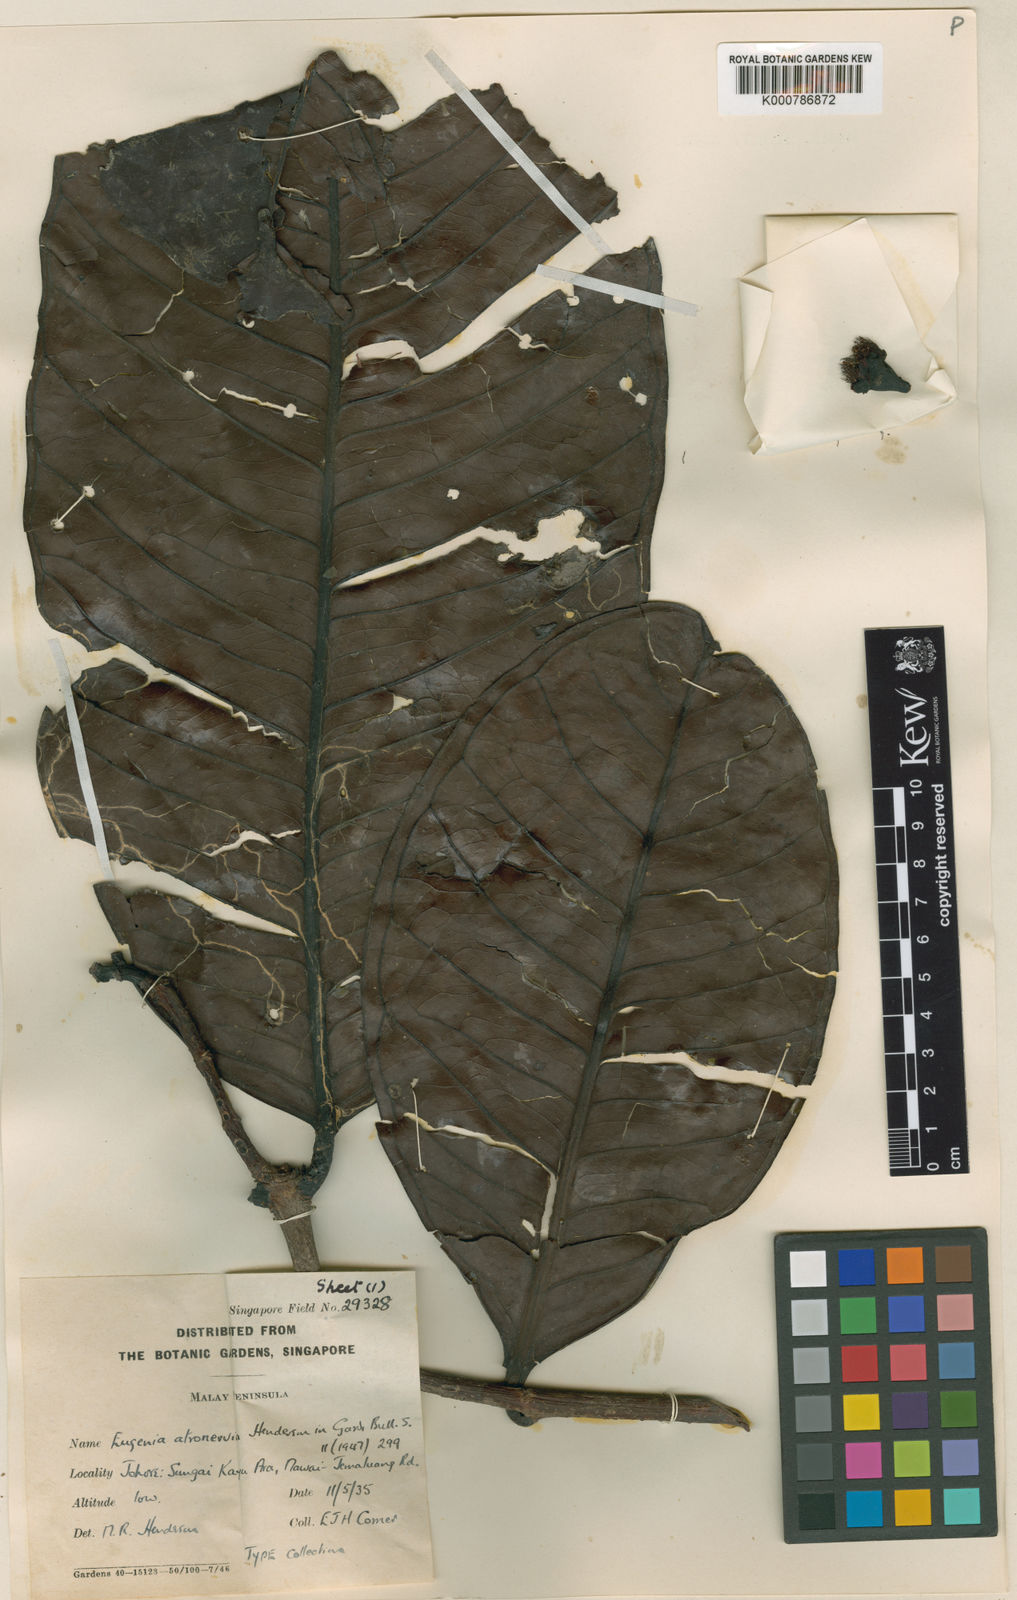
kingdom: Plantae
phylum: Tracheophyta
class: Magnoliopsida
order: Myrtales
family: Myrtaceae
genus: Syzygium
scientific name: Syzygium
